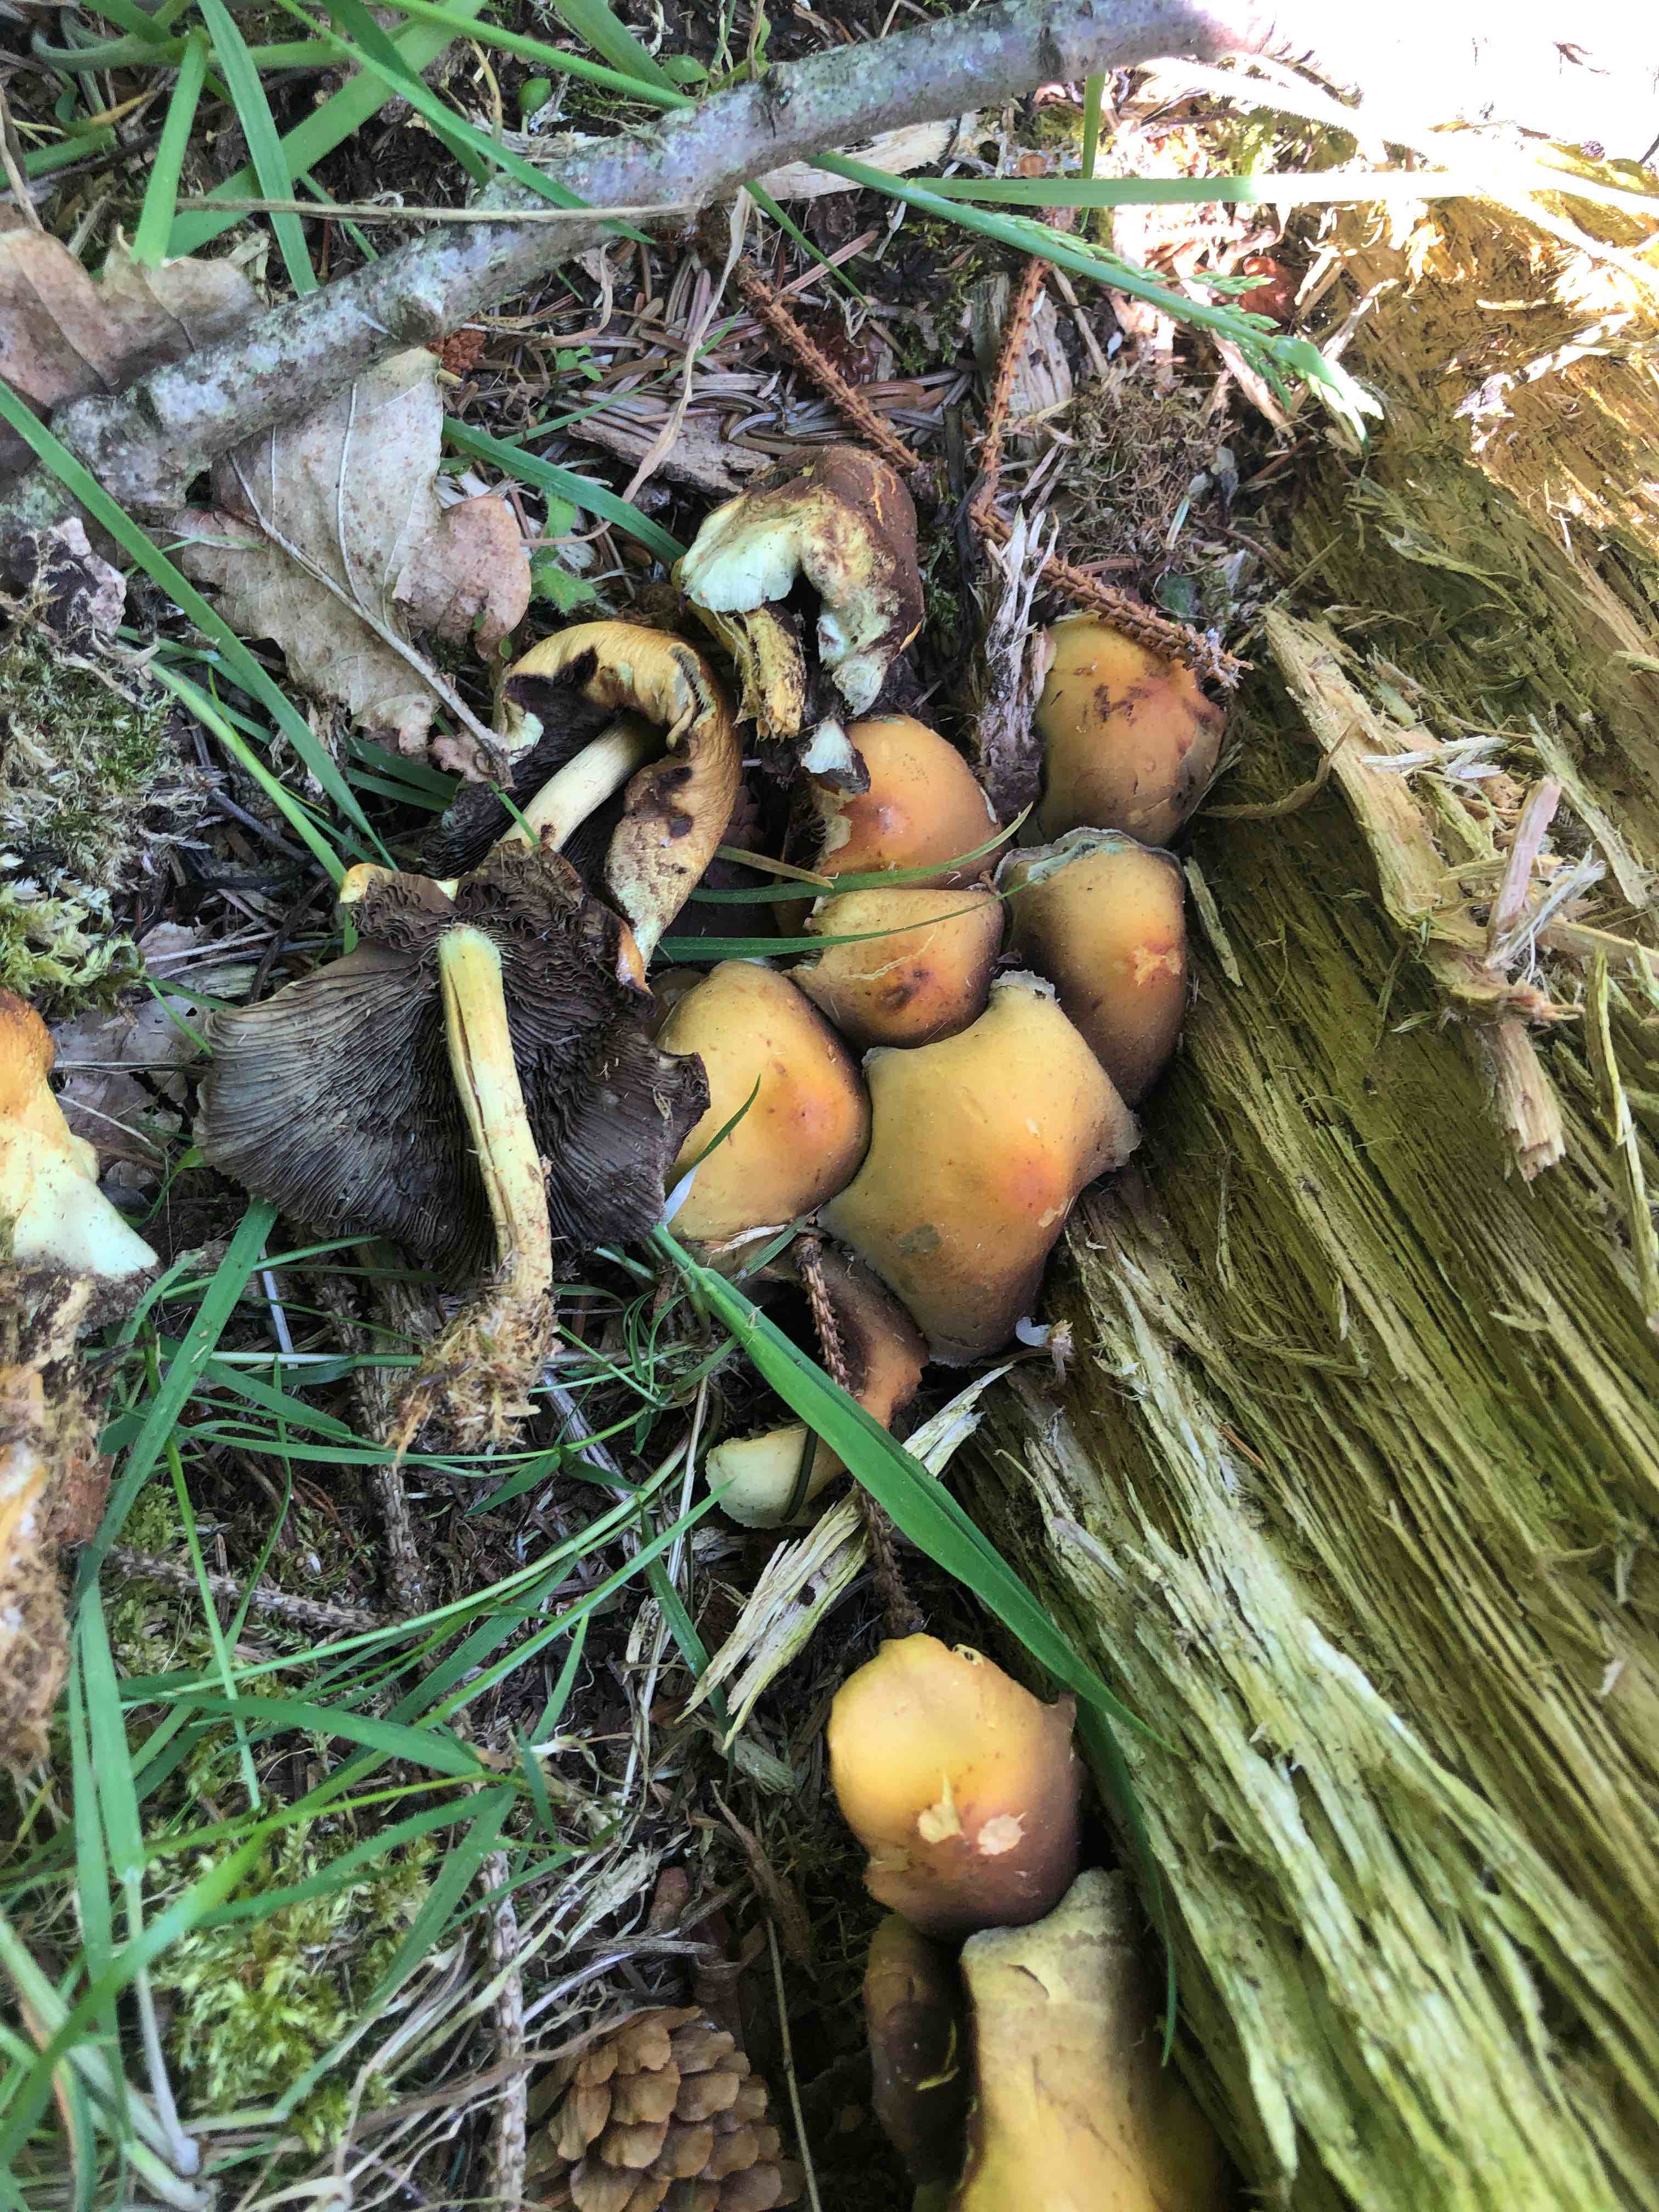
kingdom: Fungi
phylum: Basidiomycota
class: Agaricomycetes
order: Agaricales
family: Strophariaceae
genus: Hypholoma
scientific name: Hypholoma fasciculare
